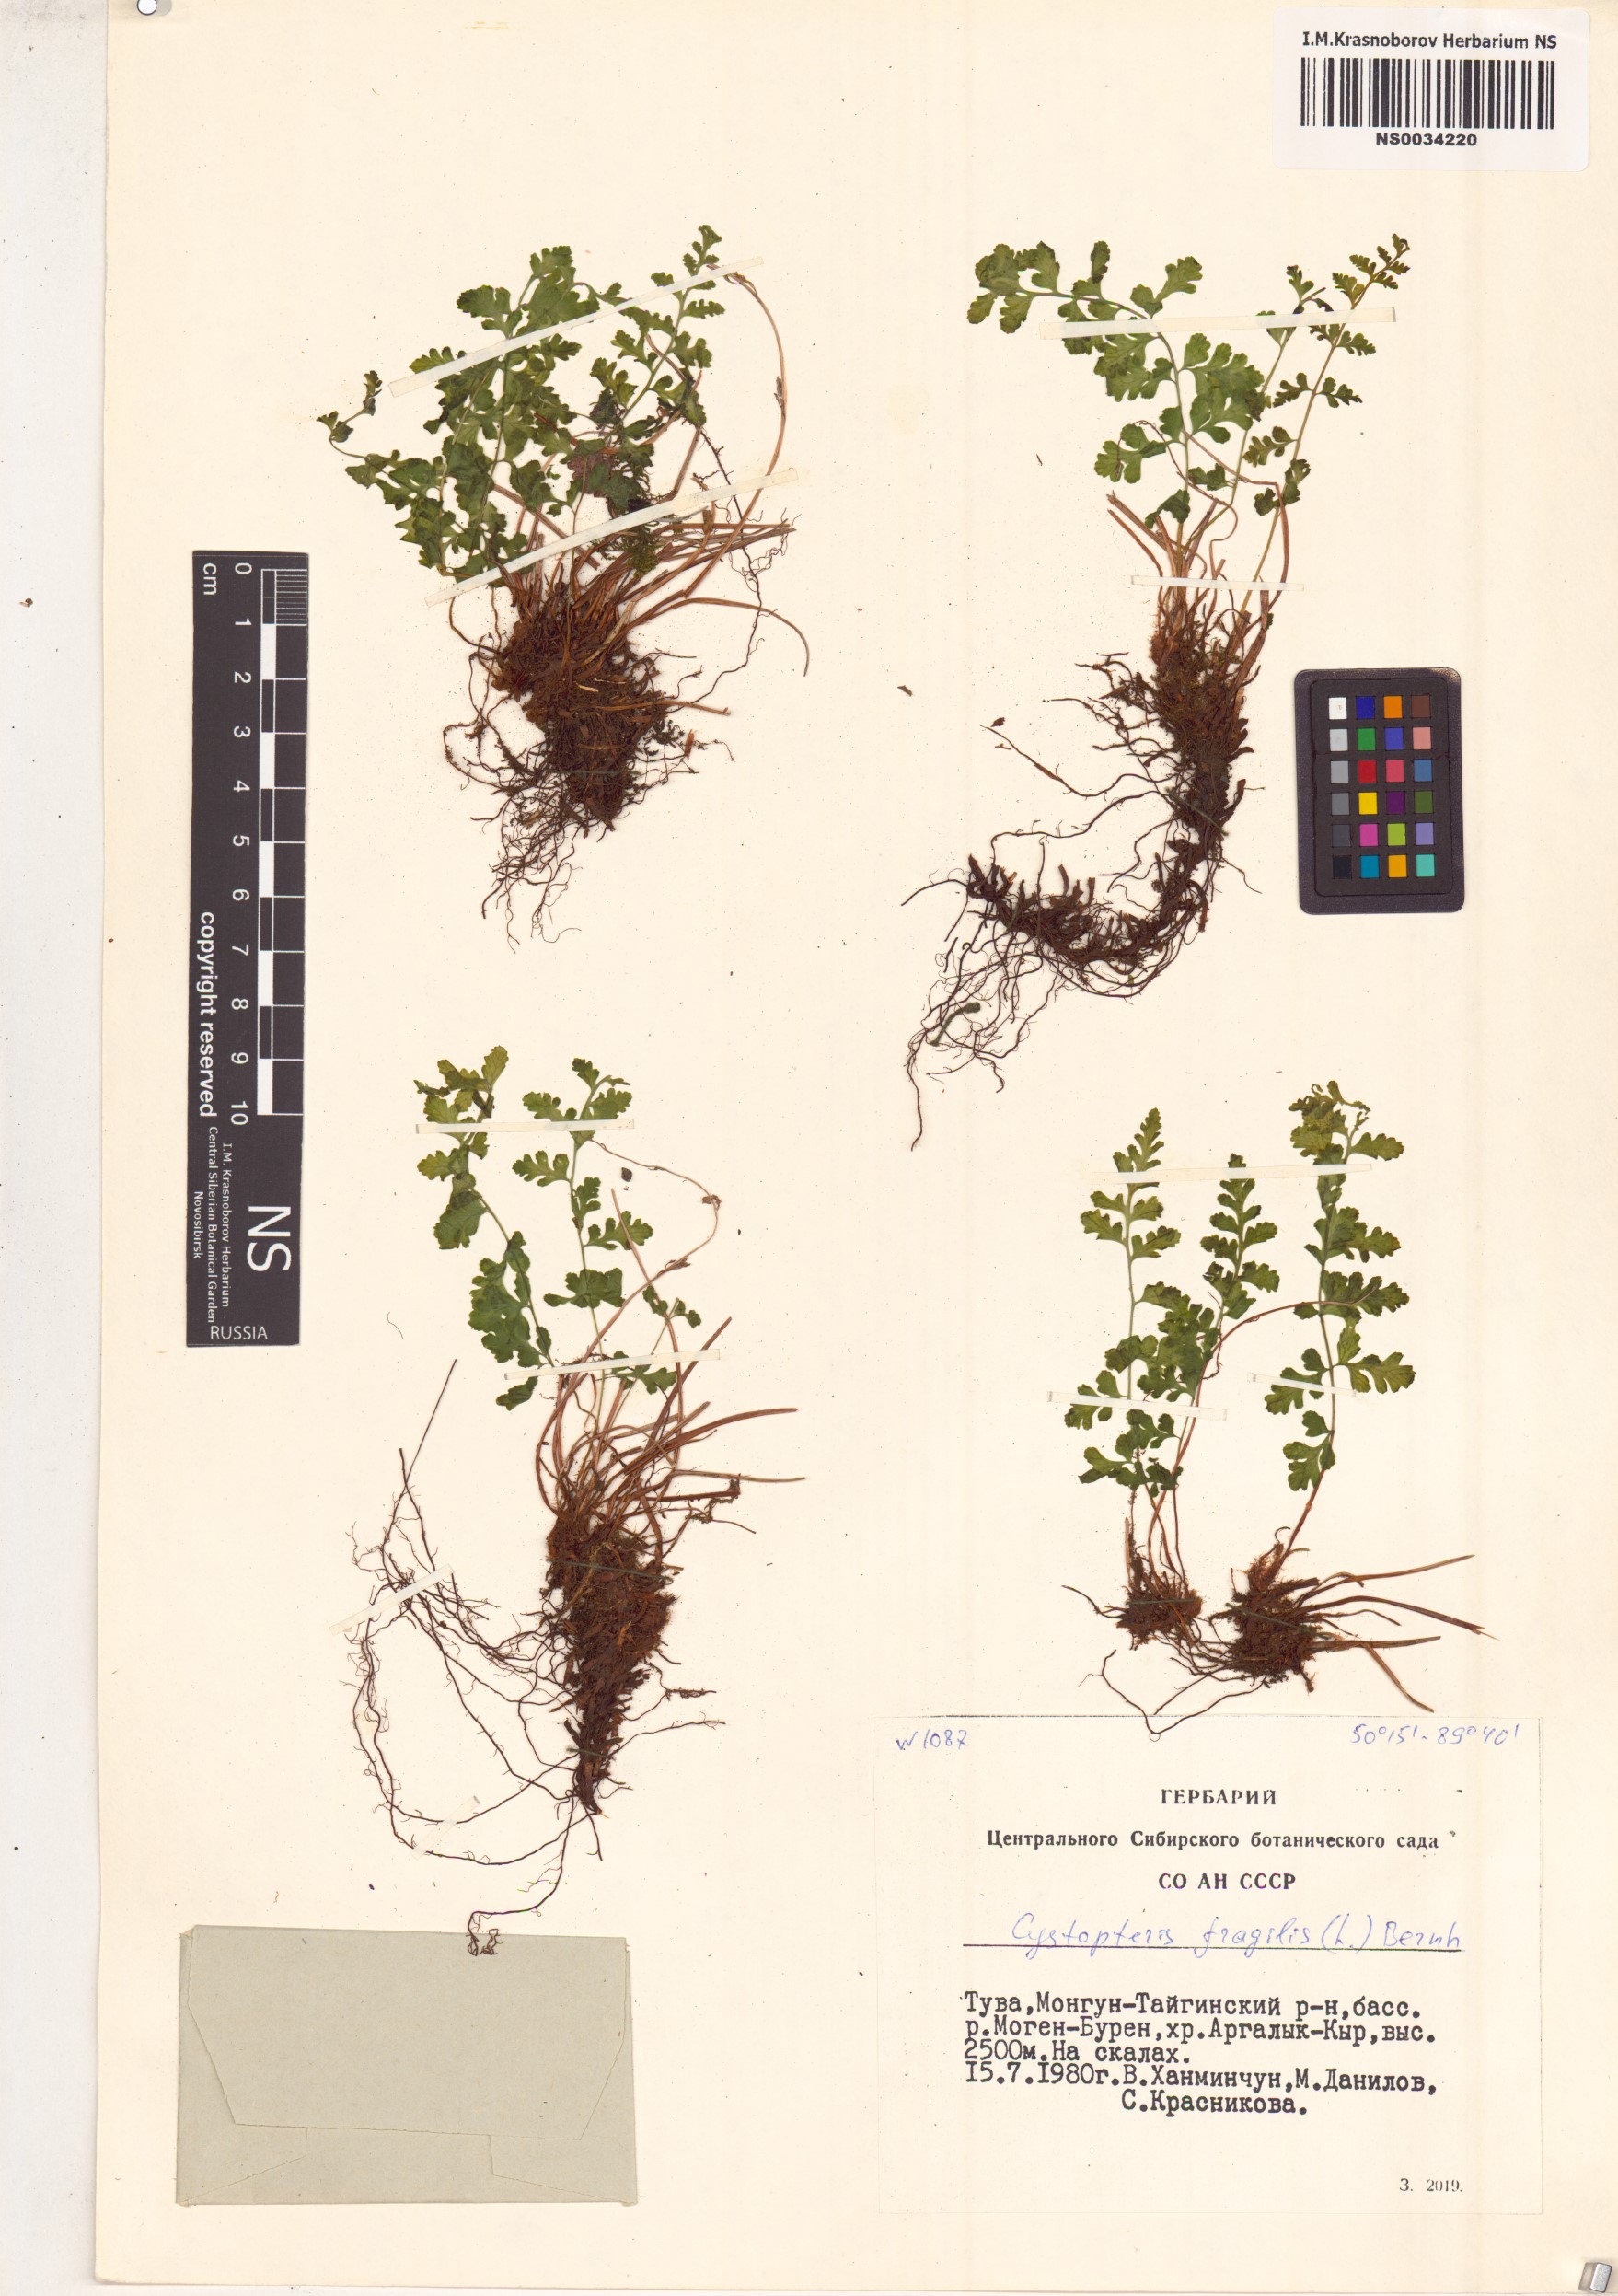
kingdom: Plantae
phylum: Tracheophyta
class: Polypodiopsida
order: Polypodiales
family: Cystopteridaceae
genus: Cystopteris
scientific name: Cystopteris fragilis
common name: Brittle bladder fern
